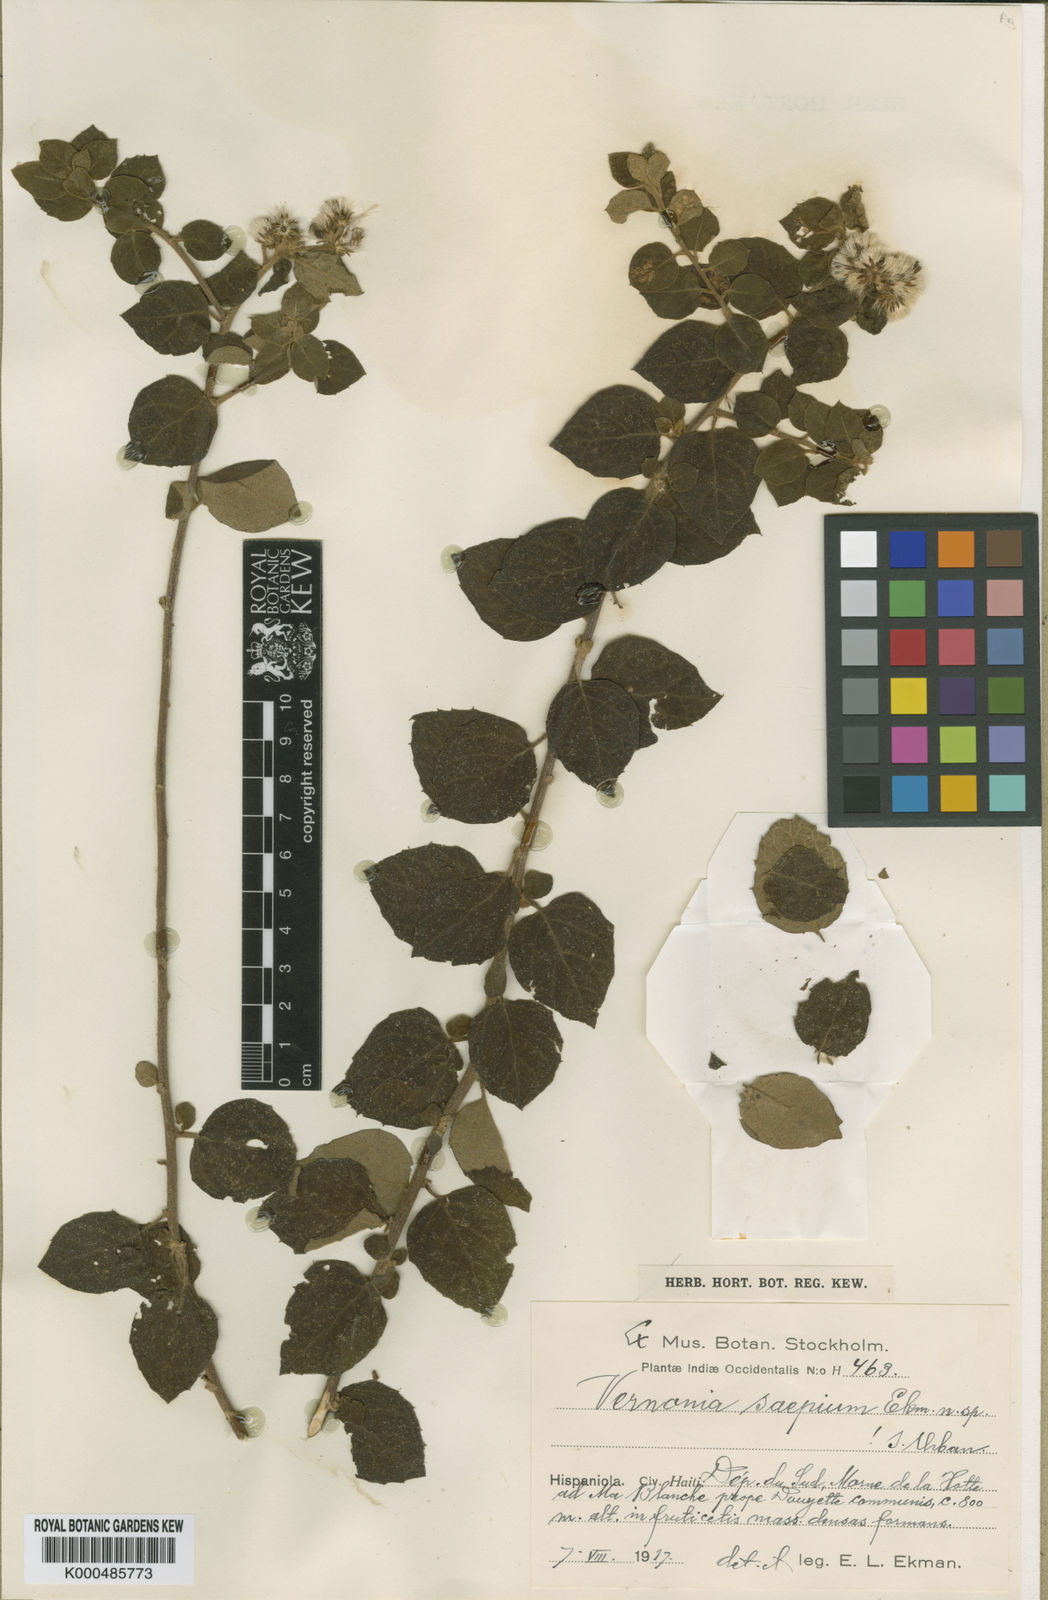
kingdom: Plantae
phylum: Tracheophyta
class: Magnoliopsida
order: Asterales
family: Asteraceae
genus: Cyrtocymura
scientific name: Cyrtocymura saepia
